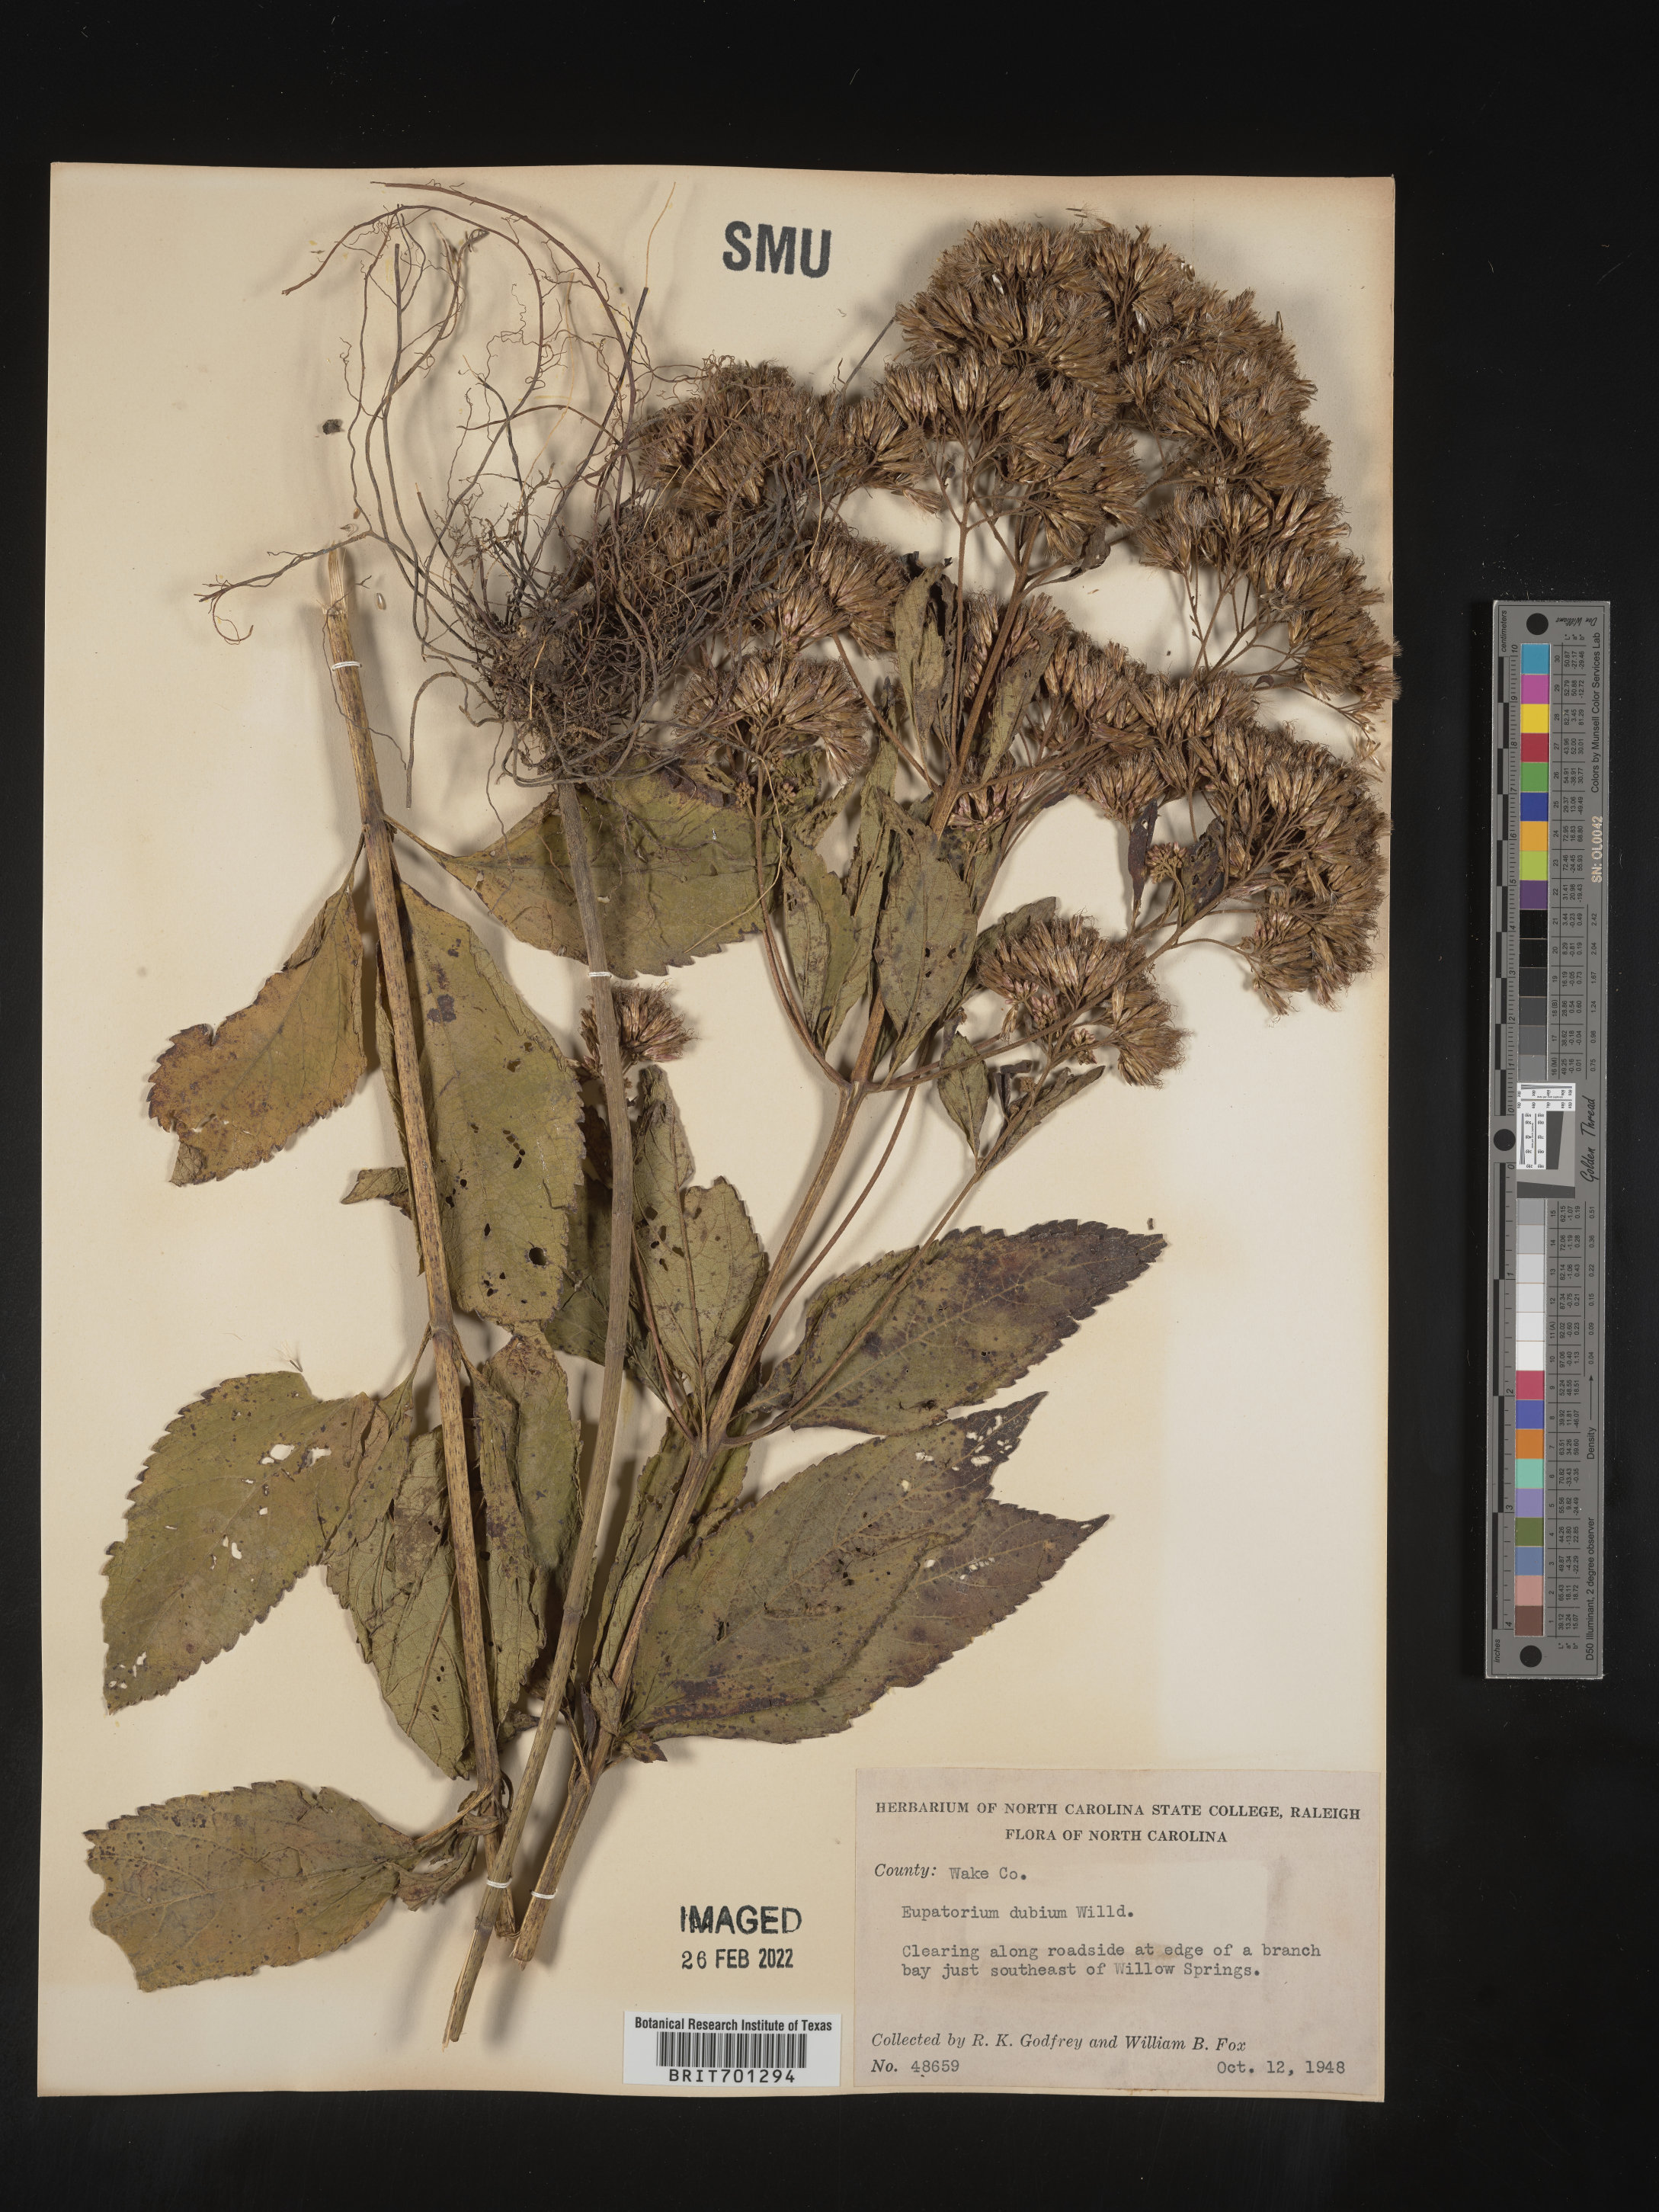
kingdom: Plantae
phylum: Tracheophyta
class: Magnoliopsida
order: Asterales
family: Asteraceae
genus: Eutrochium
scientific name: Eutrochium dubium
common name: Coastal plain joe pye weed
